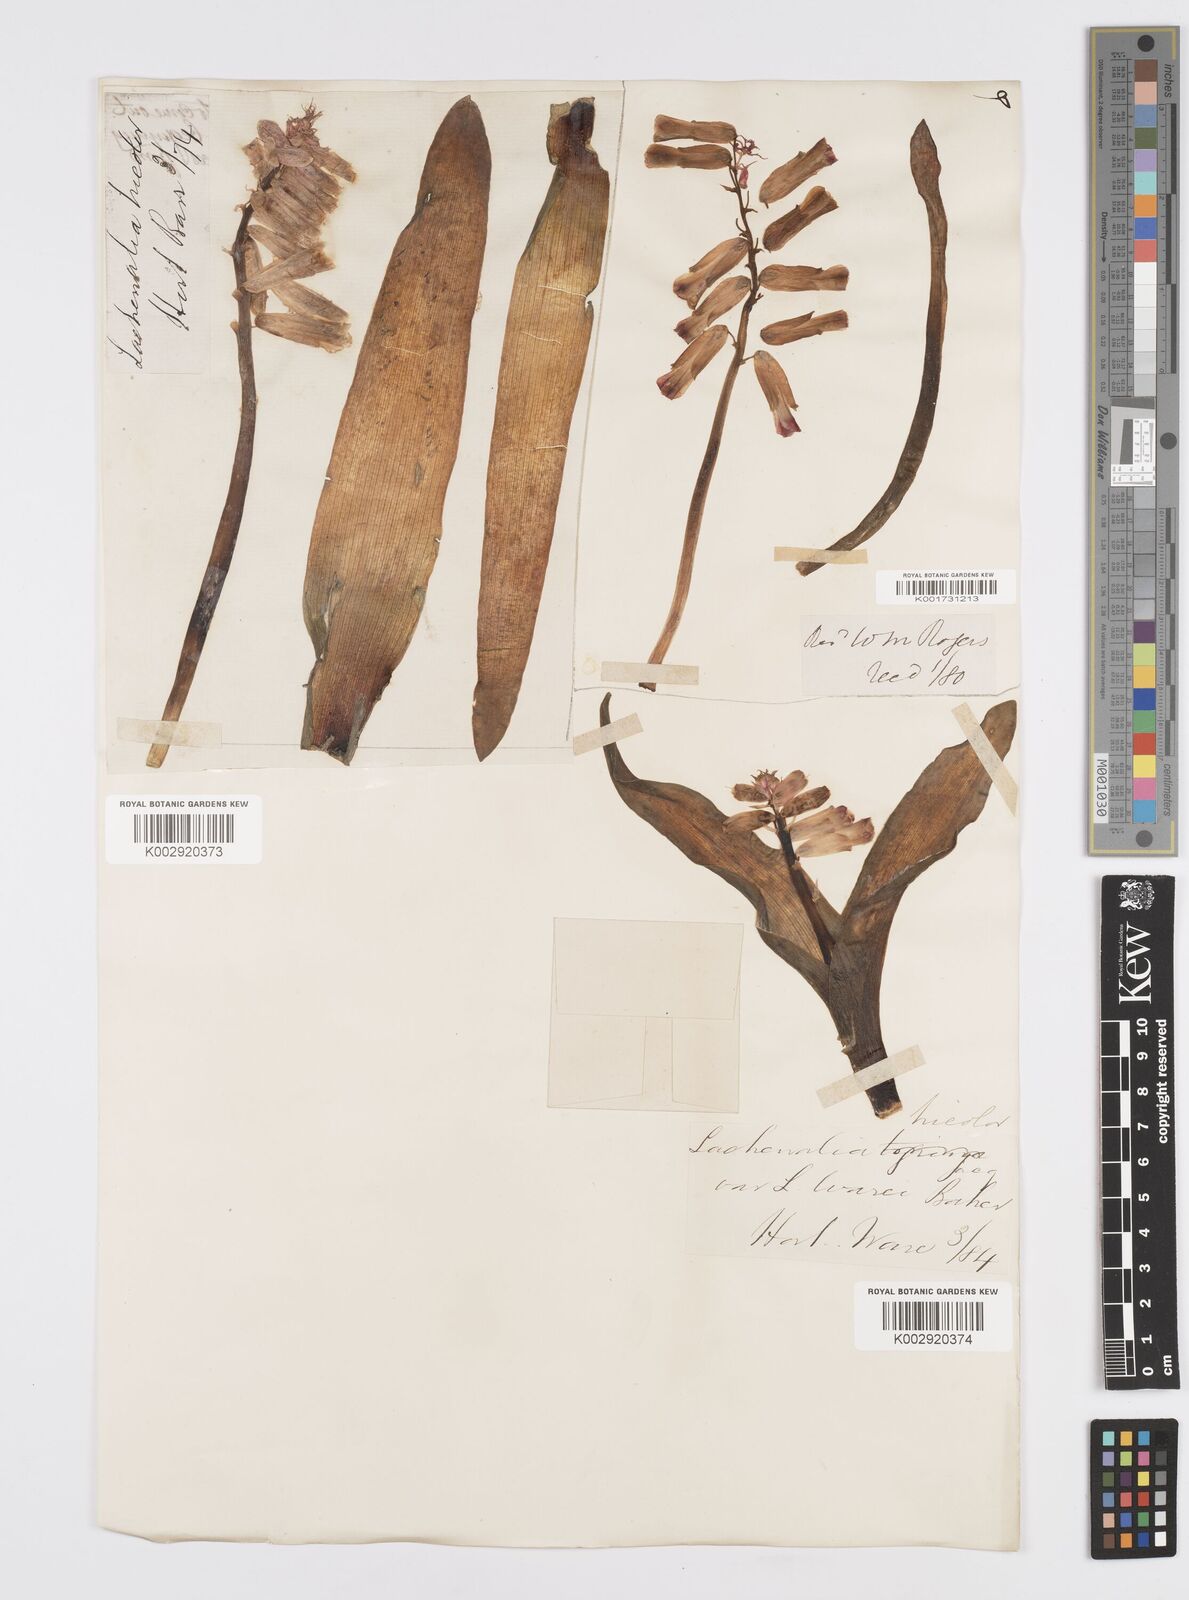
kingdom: Plantae
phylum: Tracheophyta
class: Liliopsida
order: Asparagales
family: Asparagaceae
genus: Lachenalia
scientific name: Lachenalia aloides
